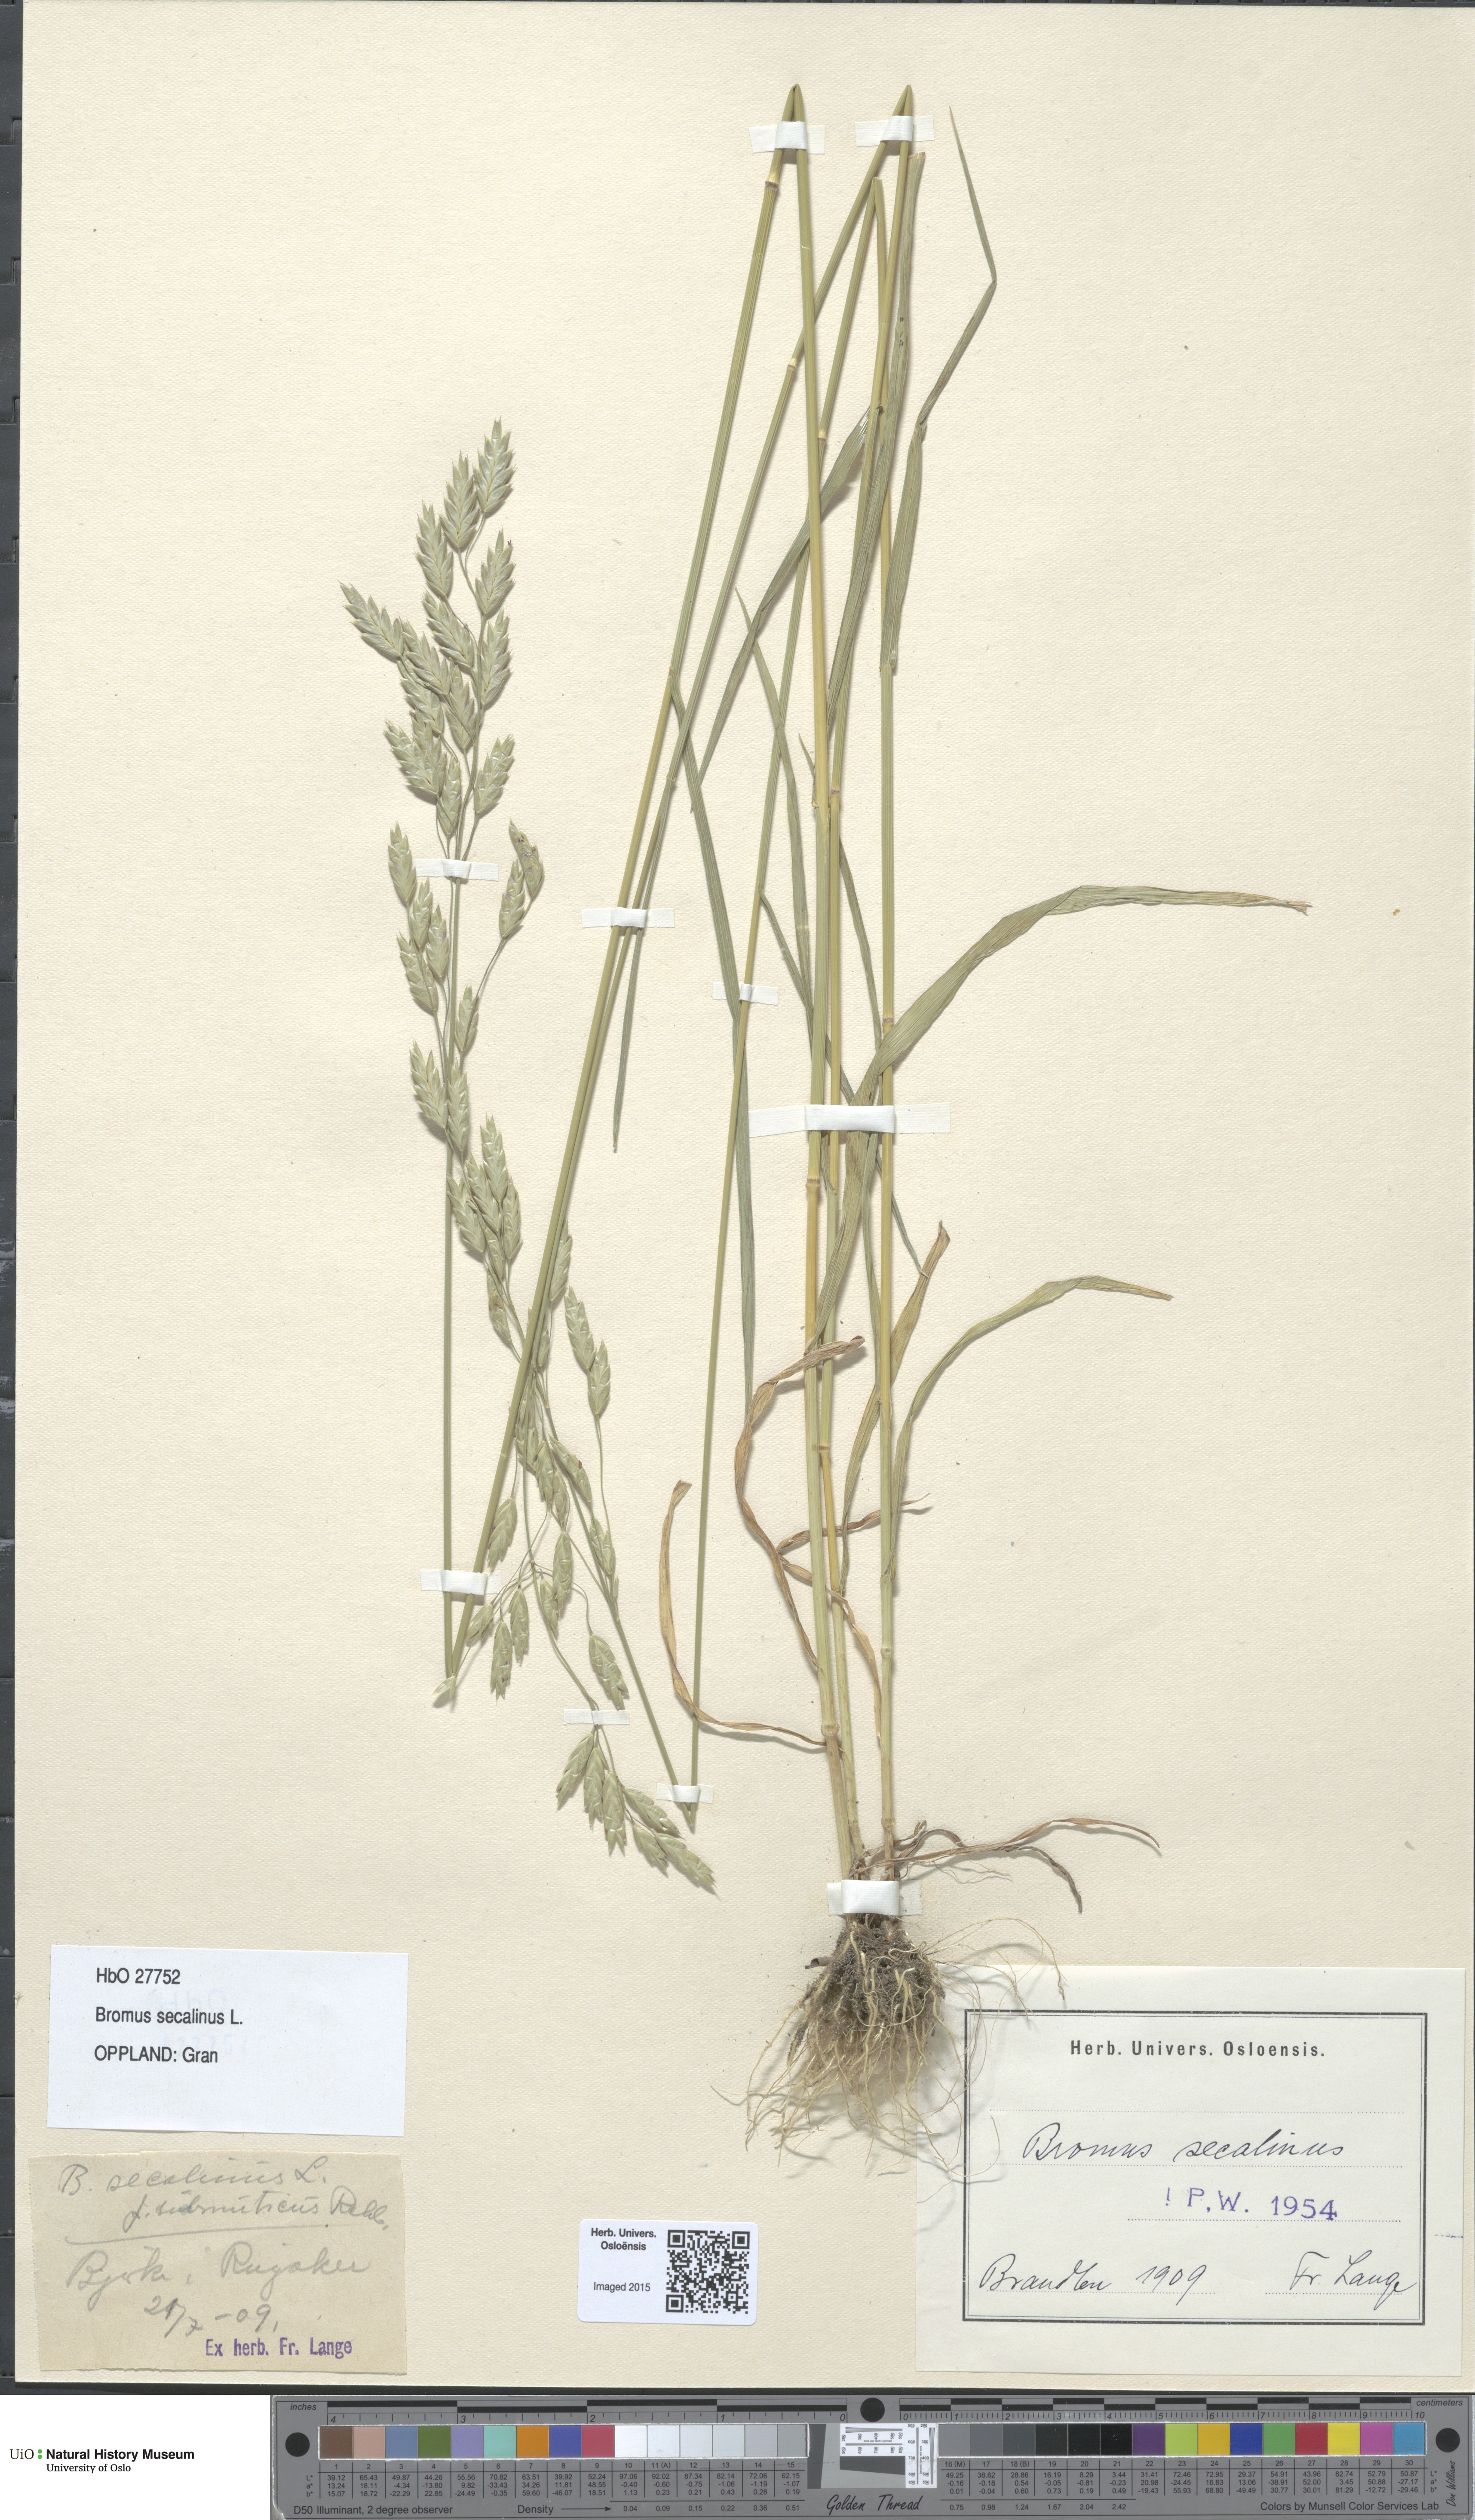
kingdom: Plantae
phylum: Tracheophyta
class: Liliopsida
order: Poales
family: Poaceae
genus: Bromus
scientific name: Bromus secalinus
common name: Rye brome
